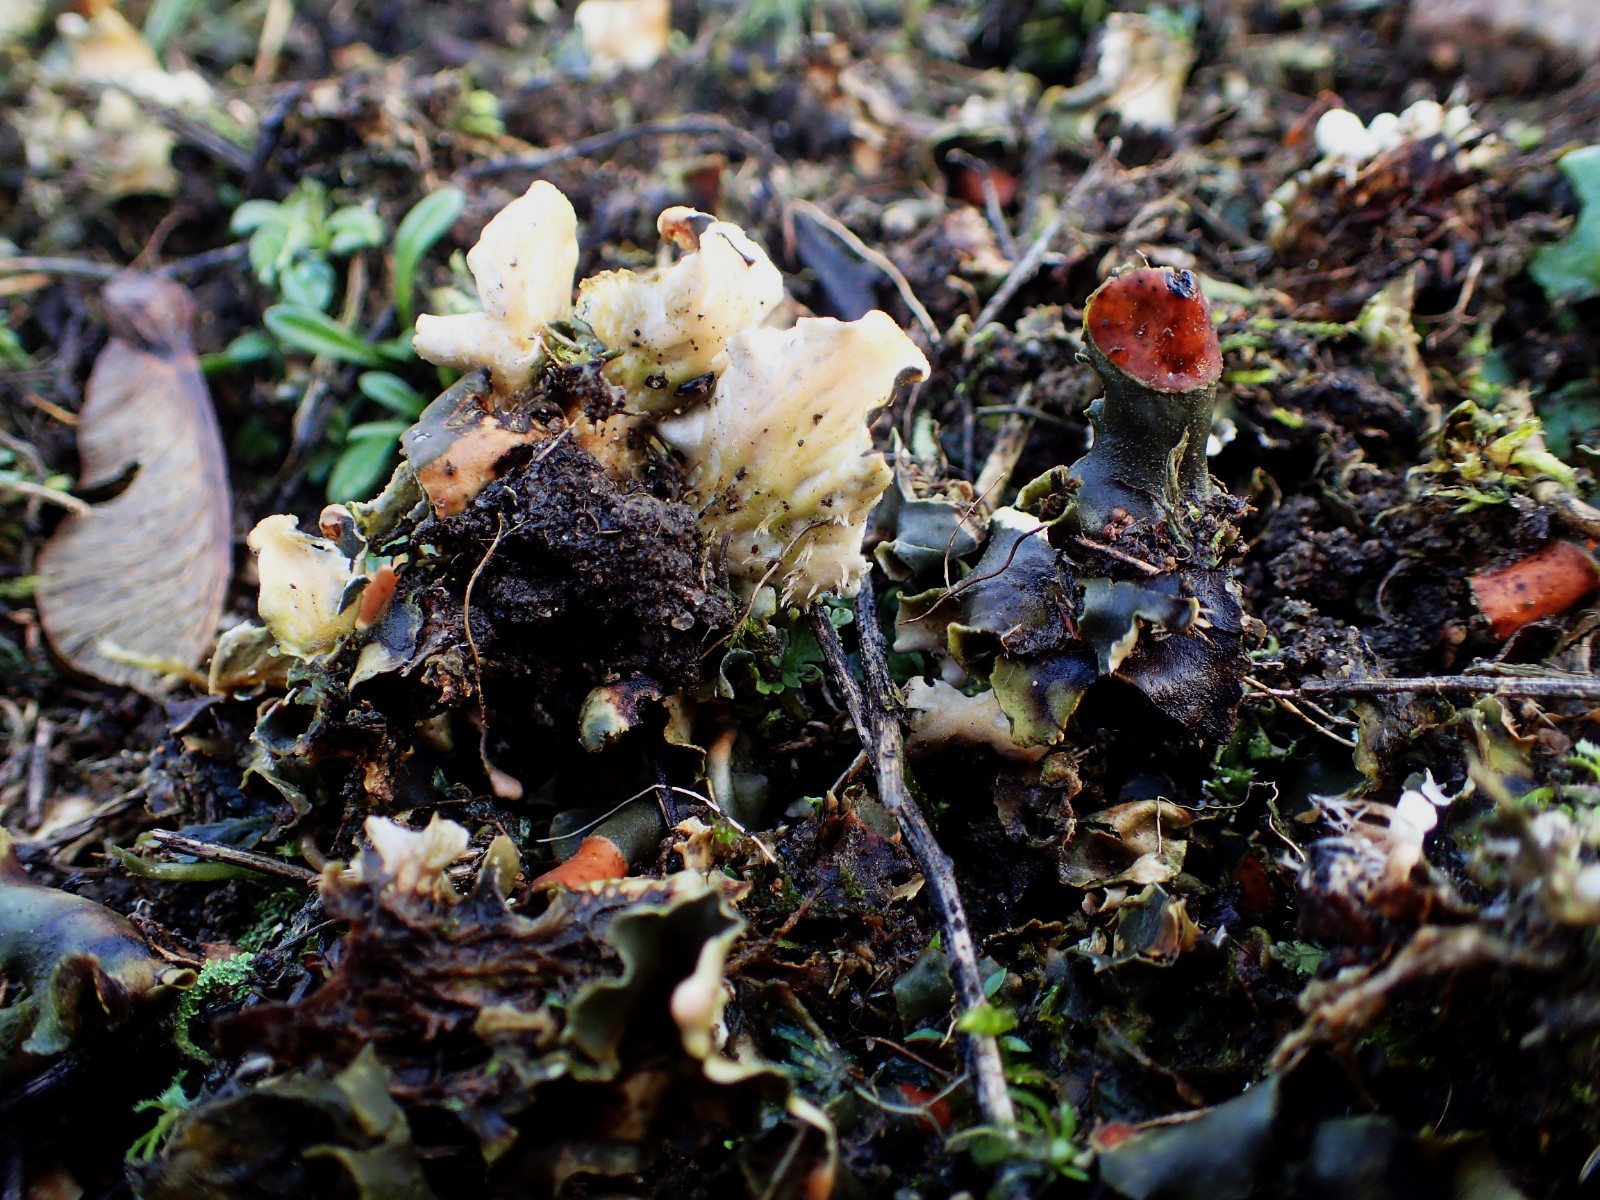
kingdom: Fungi
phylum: Ascomycota
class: Lecanoromycetes
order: Peltigerales
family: Peltigeraceae
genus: Peltigera
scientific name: Peltigera
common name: skjoldlav
